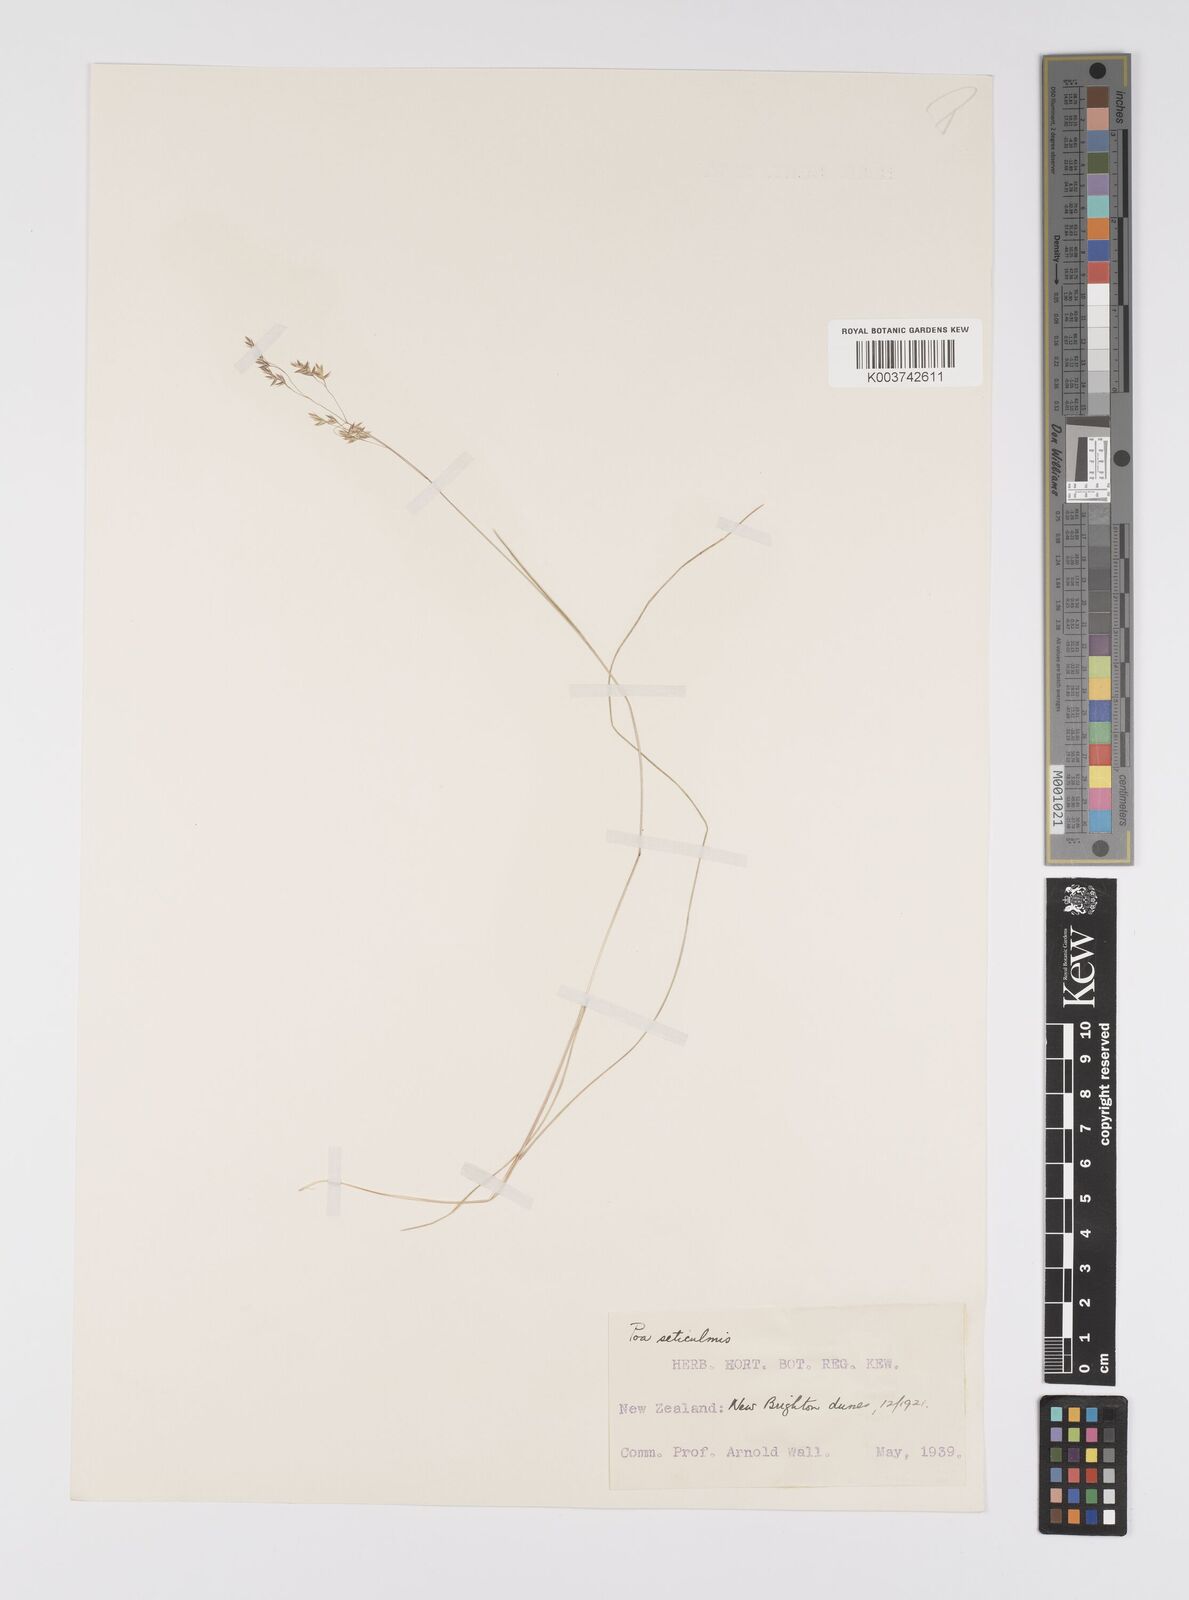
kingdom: Plantae
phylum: Tracheophyta
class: Liliopsida
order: Poales
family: Poaceae
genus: Poa
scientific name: Poa pusilla
